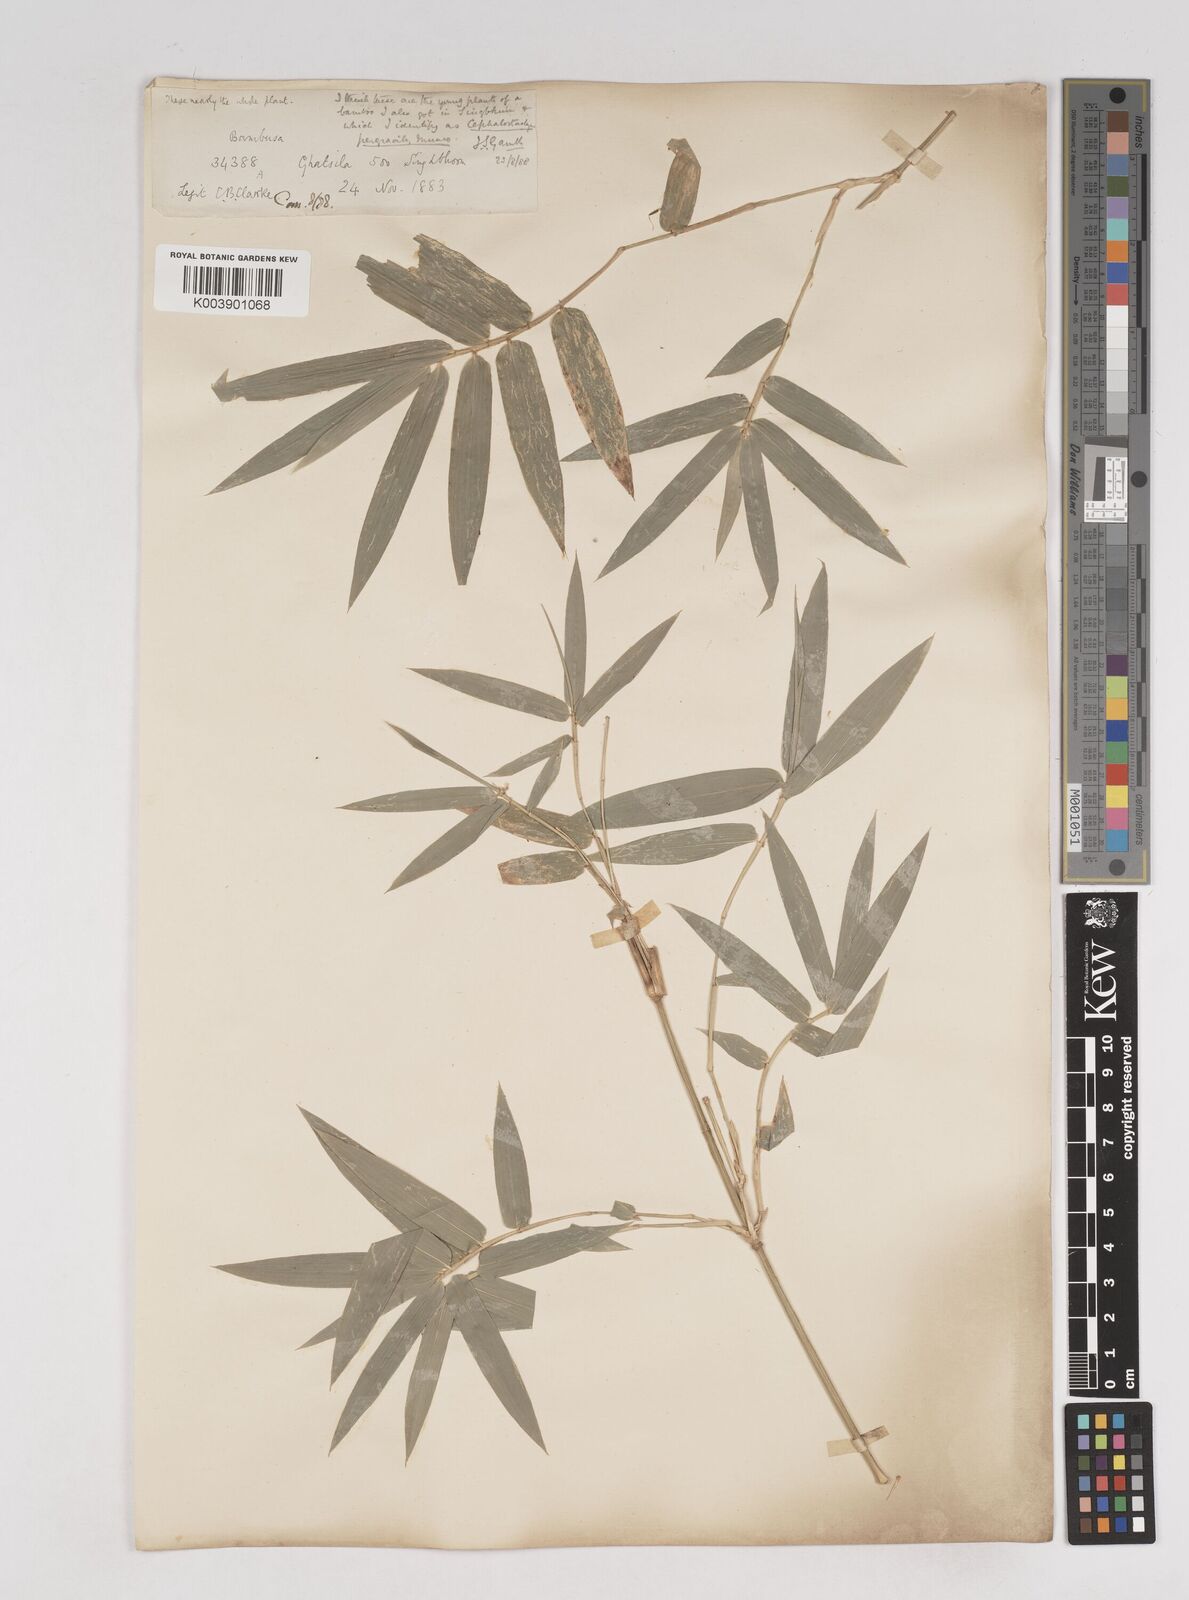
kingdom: Plantae
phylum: Tracheophyta
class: Liliopsida
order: Poales
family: Poaceae
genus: Schizostachyum
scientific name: Schizostachyum pergracile
